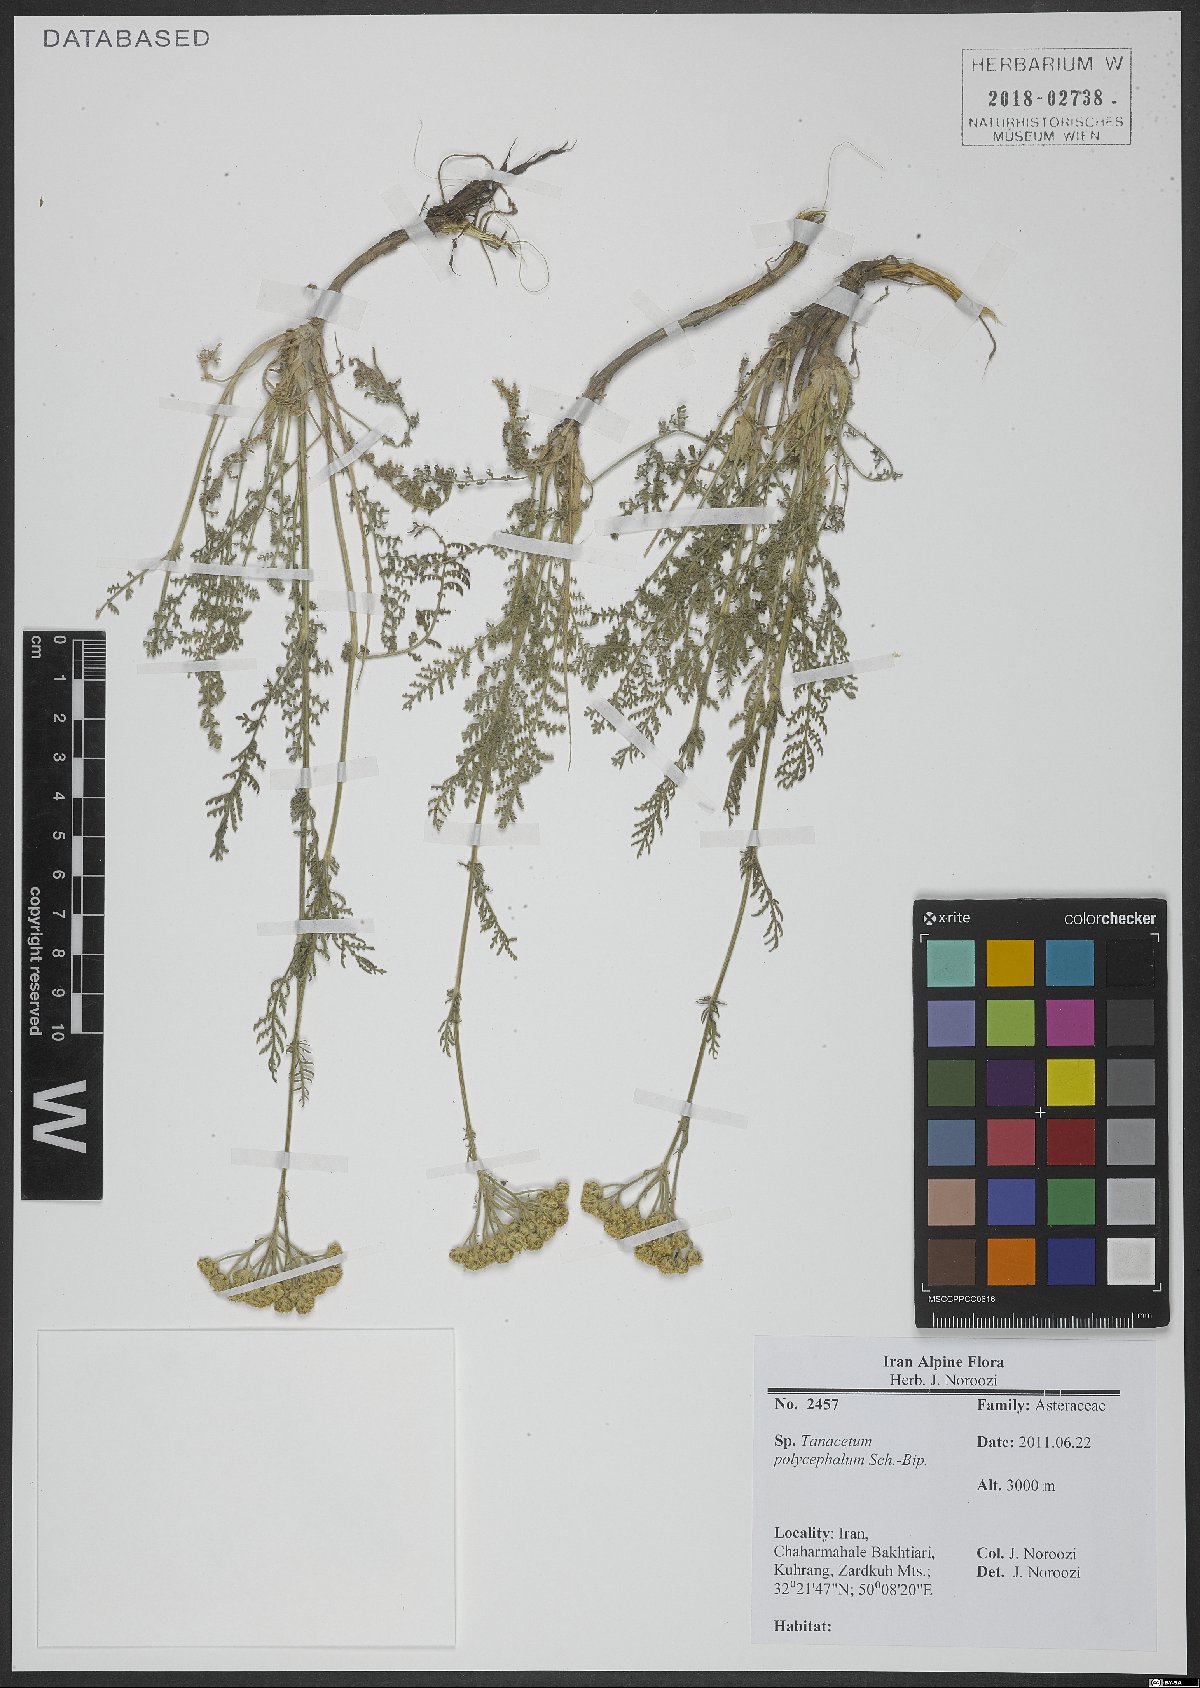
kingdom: Plantae
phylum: Tracheophyta
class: Magnoliopsida
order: Asterales
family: Asteraceae
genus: Tanacetum
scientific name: Tanacetum polycephalum
